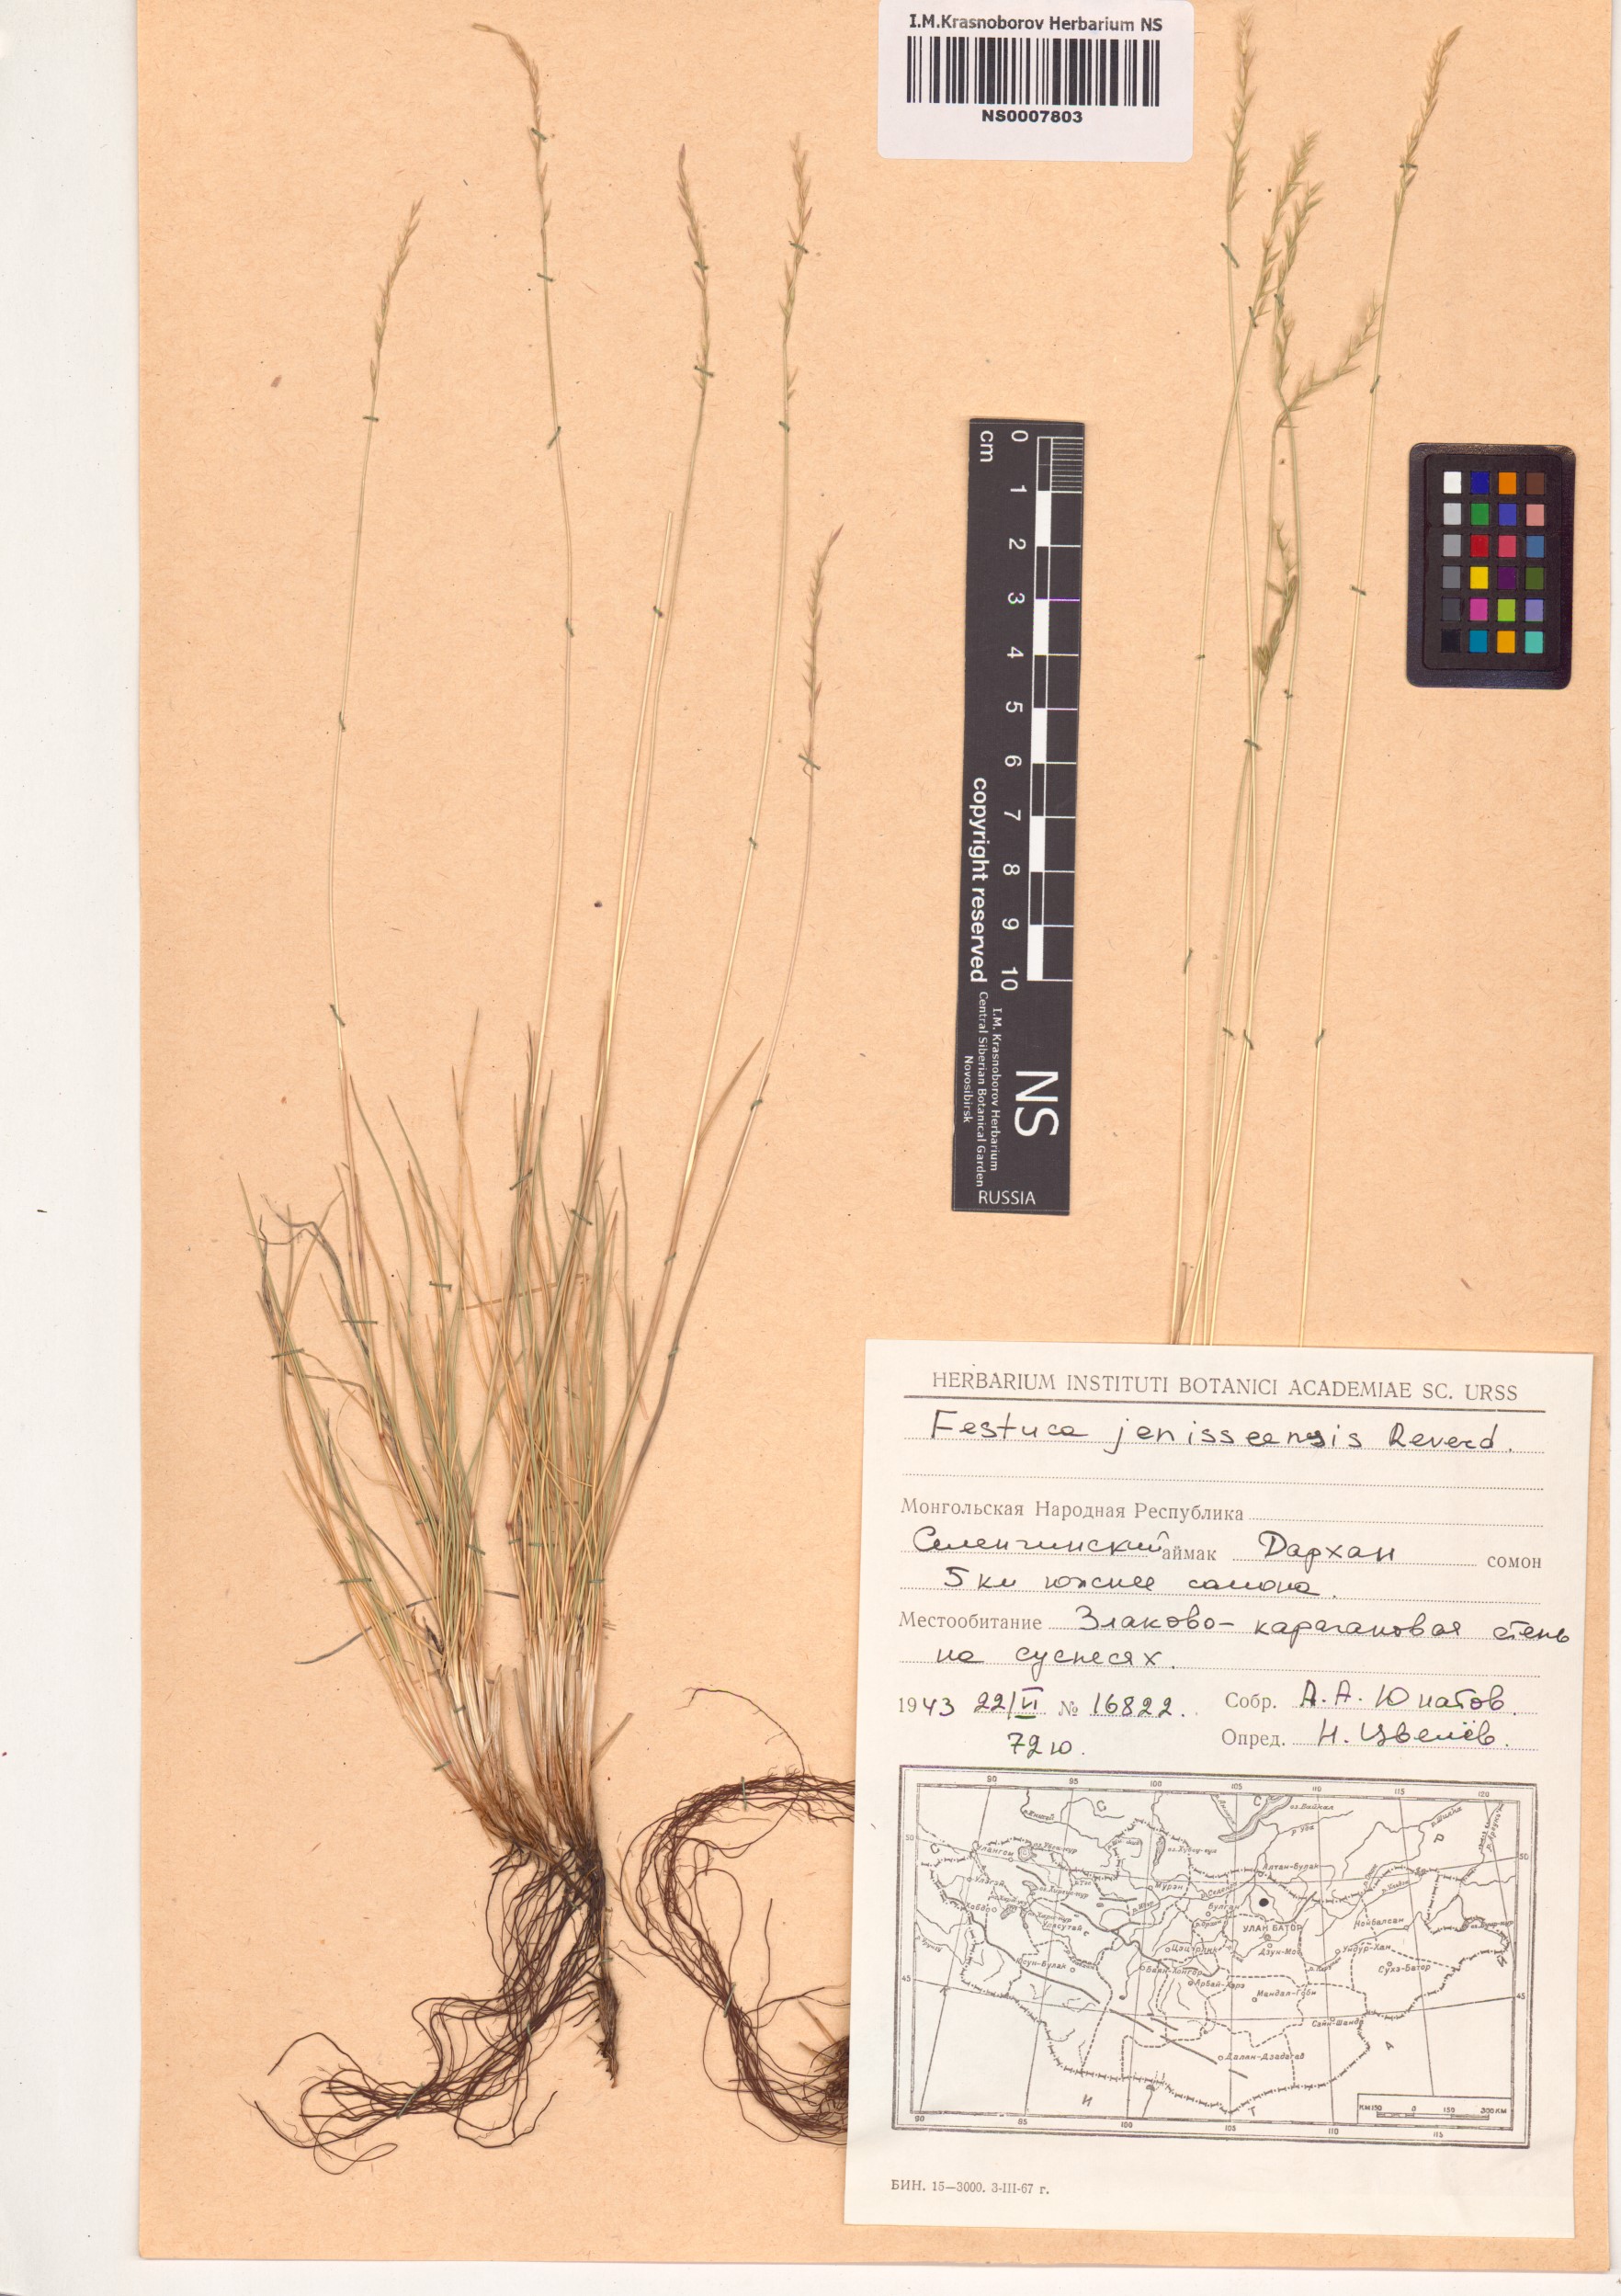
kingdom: Plantae
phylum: Tracheophyta
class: Liliopsida
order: Poales
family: Poaceae
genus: Festuca
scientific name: Festuca pseudosulcata
